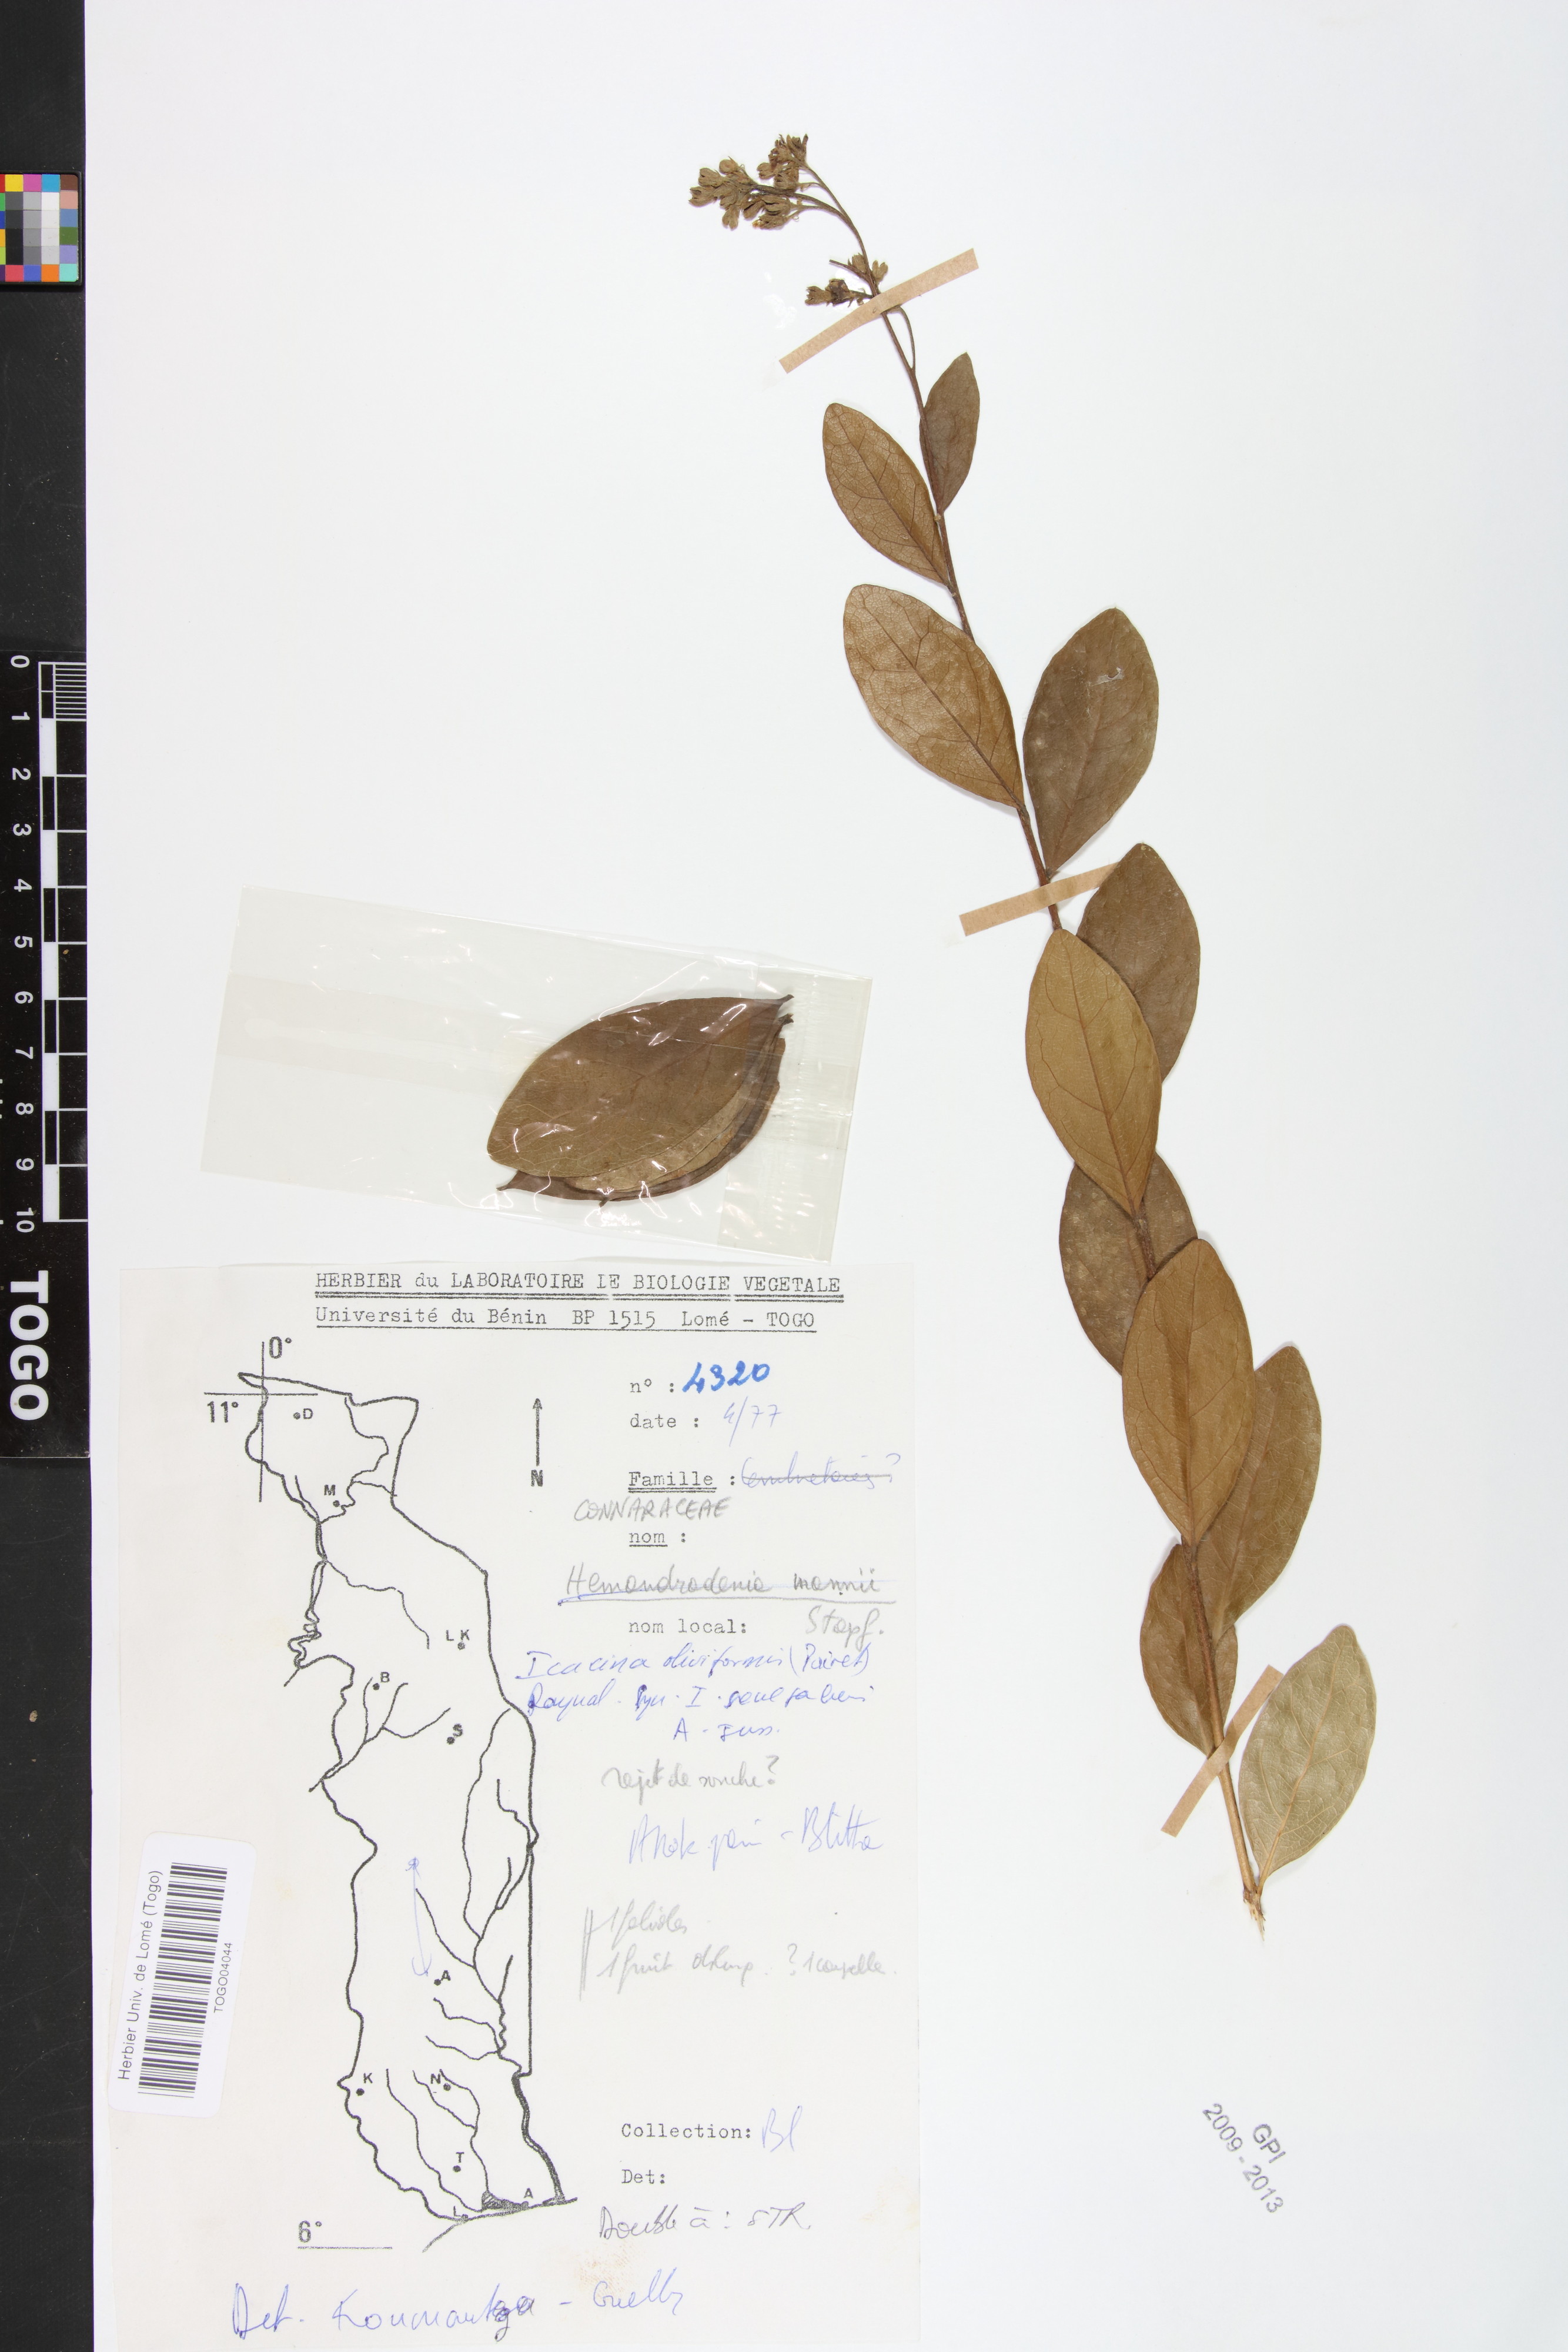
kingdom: Plantae
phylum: Tracheophyta
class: Magnoliopsida
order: Icacinales
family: Icacinaceae
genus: Icacina
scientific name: Icacina oliviformis
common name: False yam
